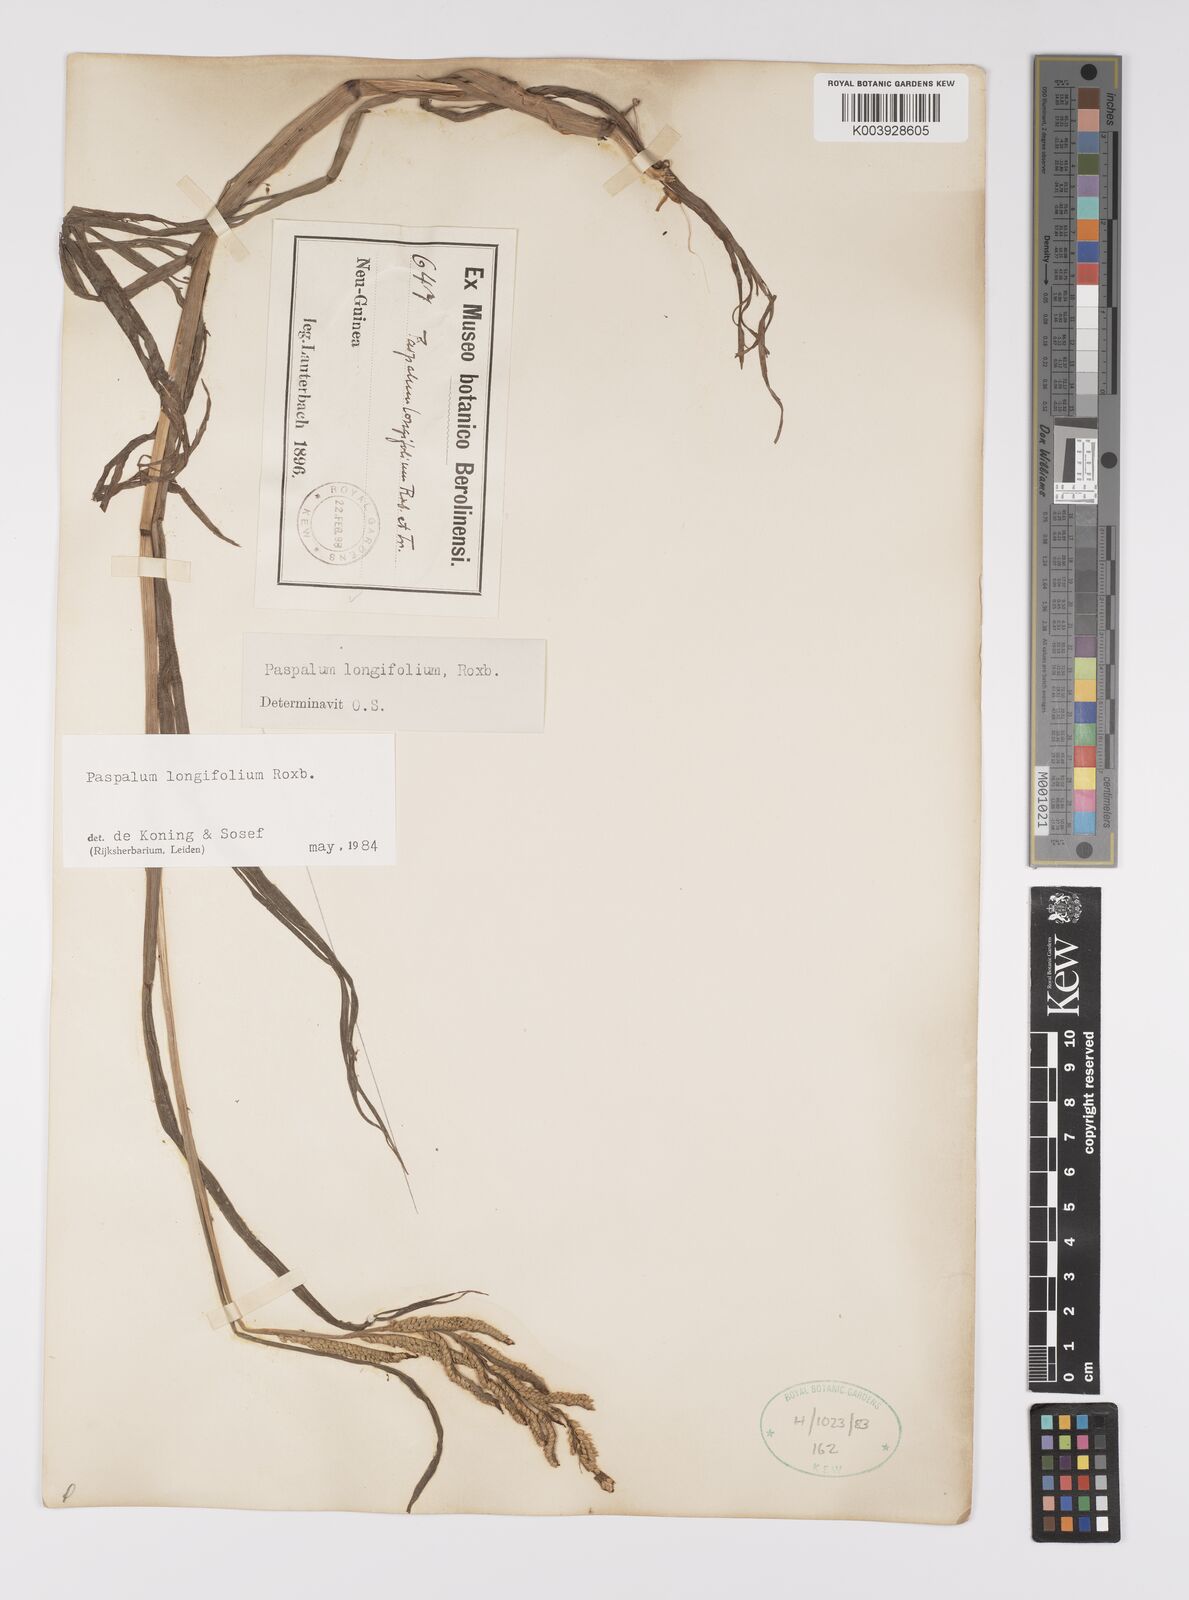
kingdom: Plantae
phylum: Tracheophyta
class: Liliopsida
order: Poales
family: Poaceae
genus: Paspalum
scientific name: Paspalum sumatrense
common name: Long-leaved paspalum
